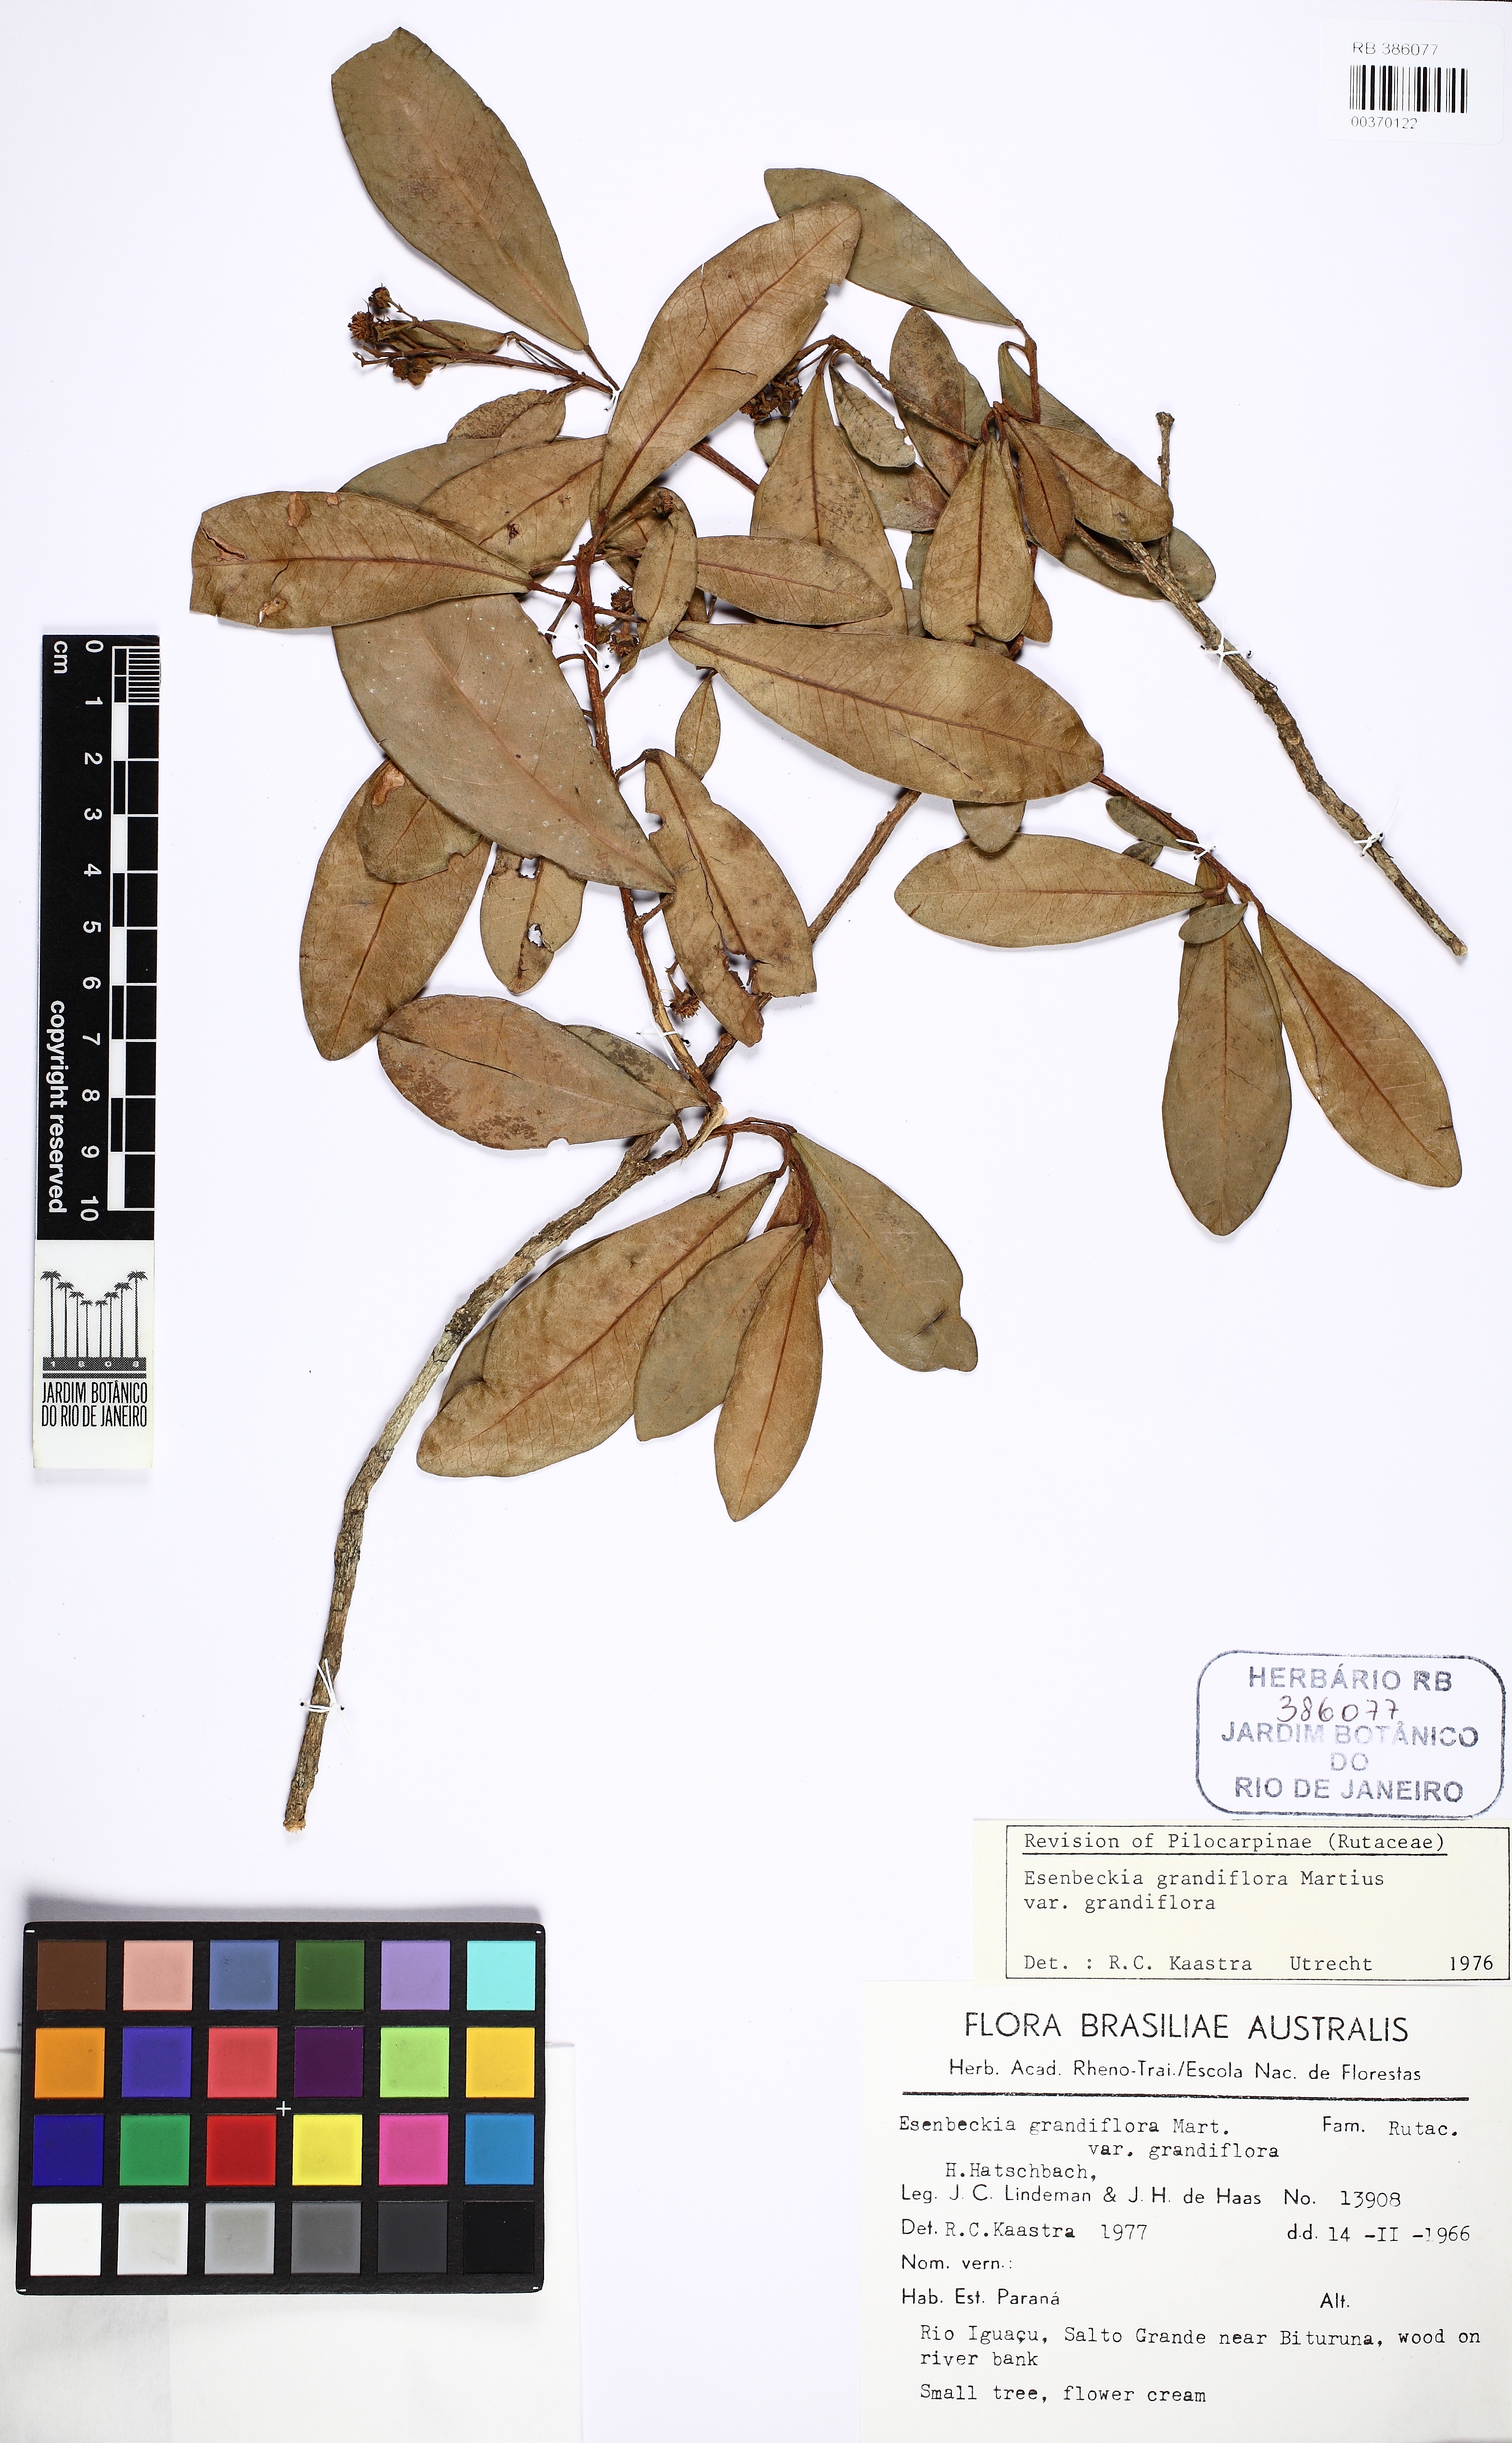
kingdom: Plantae
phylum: Tracheophyta
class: Magnoliopsida
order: Sapindales
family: Rutaceae
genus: Esenbeckia
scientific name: Esenbeckia grandiflora
